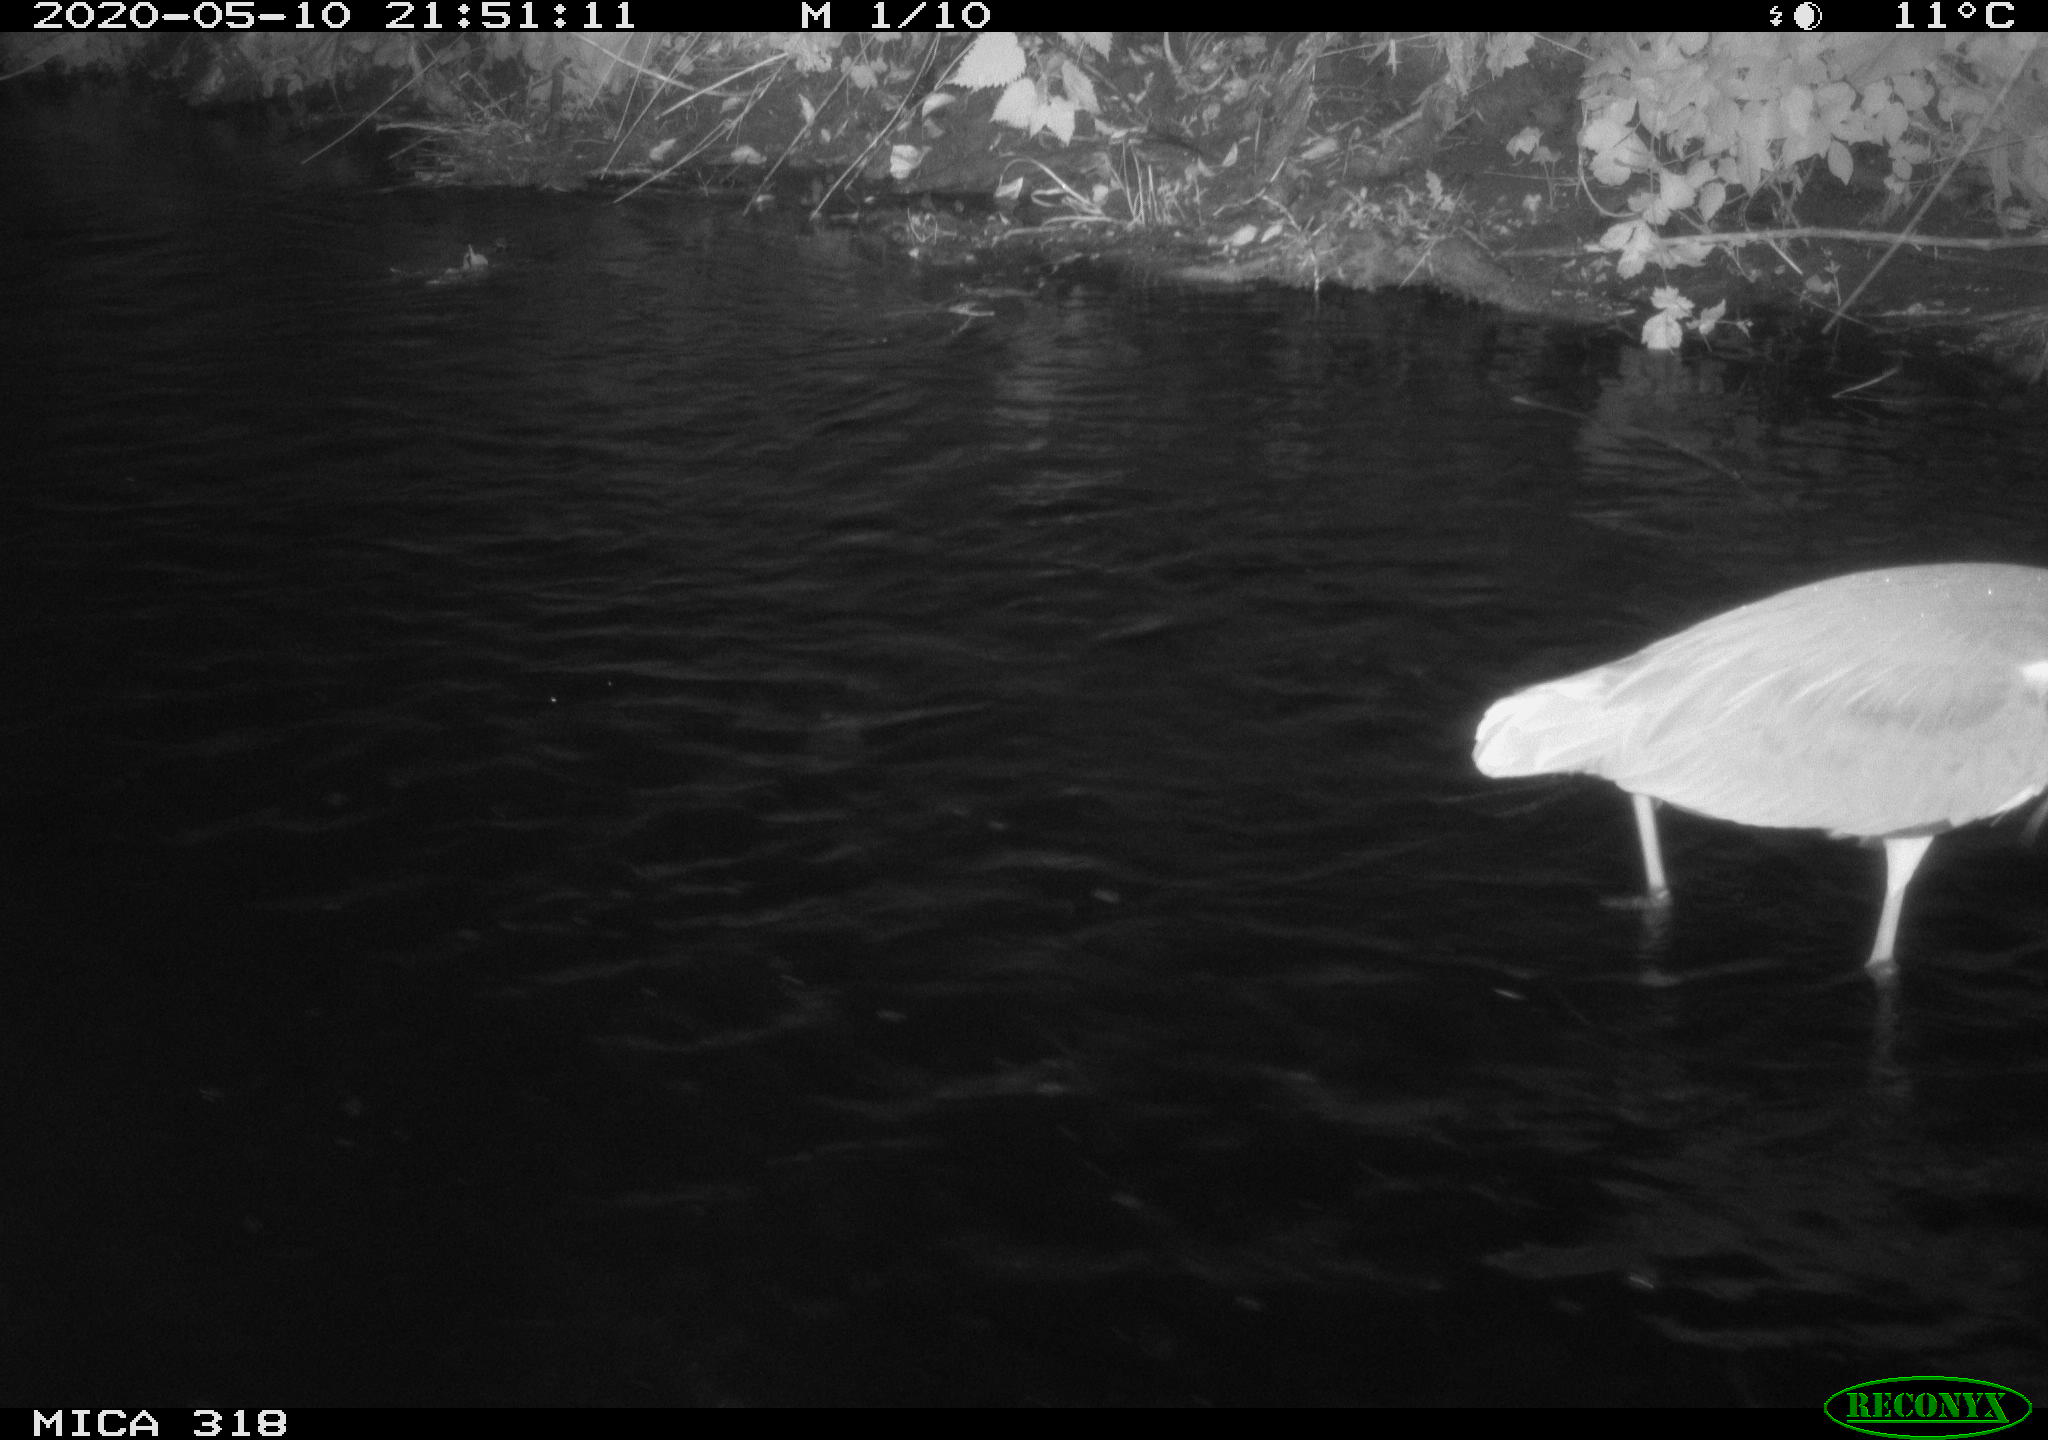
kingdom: Animalia
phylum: Chordata
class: Aves
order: Anseriformes
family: Anatidae
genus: Anas
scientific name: Anas platyrhynchos
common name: Mallard
